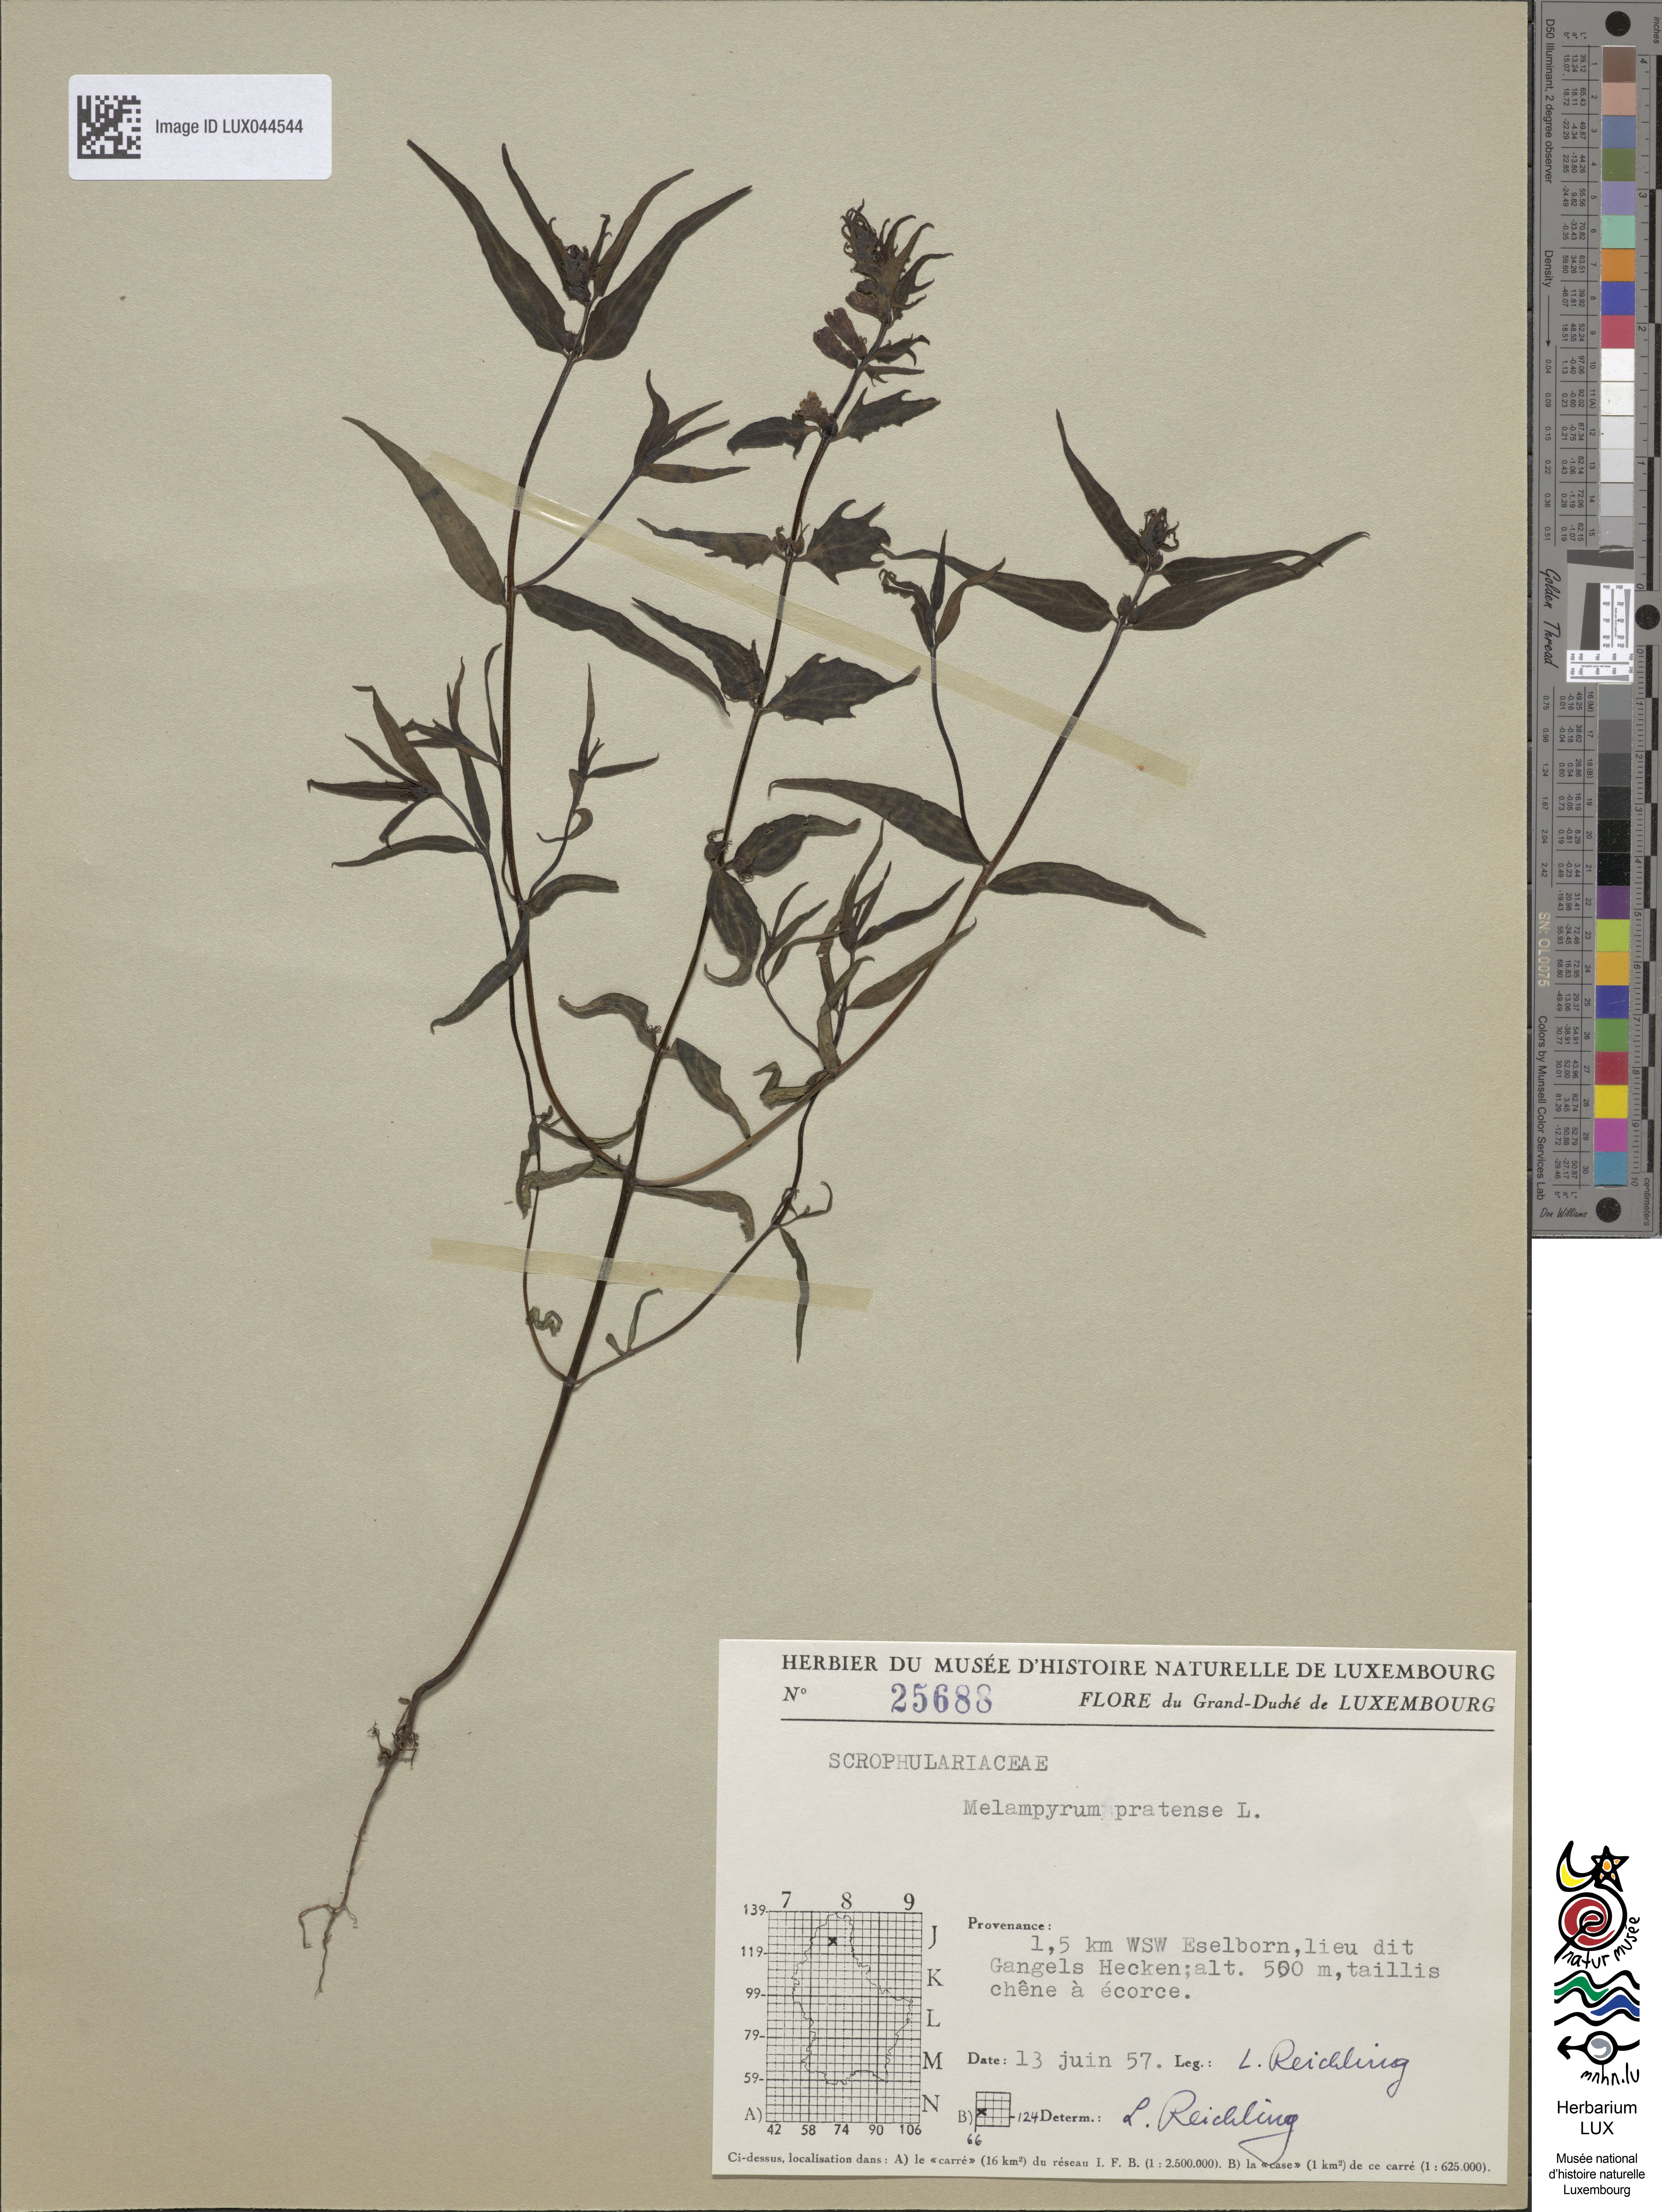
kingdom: Plantae
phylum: Tracheophyta
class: Magnoliopsida
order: Lamiales
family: Orobanchaceae
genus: Melampyrum
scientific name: Melampyrum pratense
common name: Common cow-wheat
